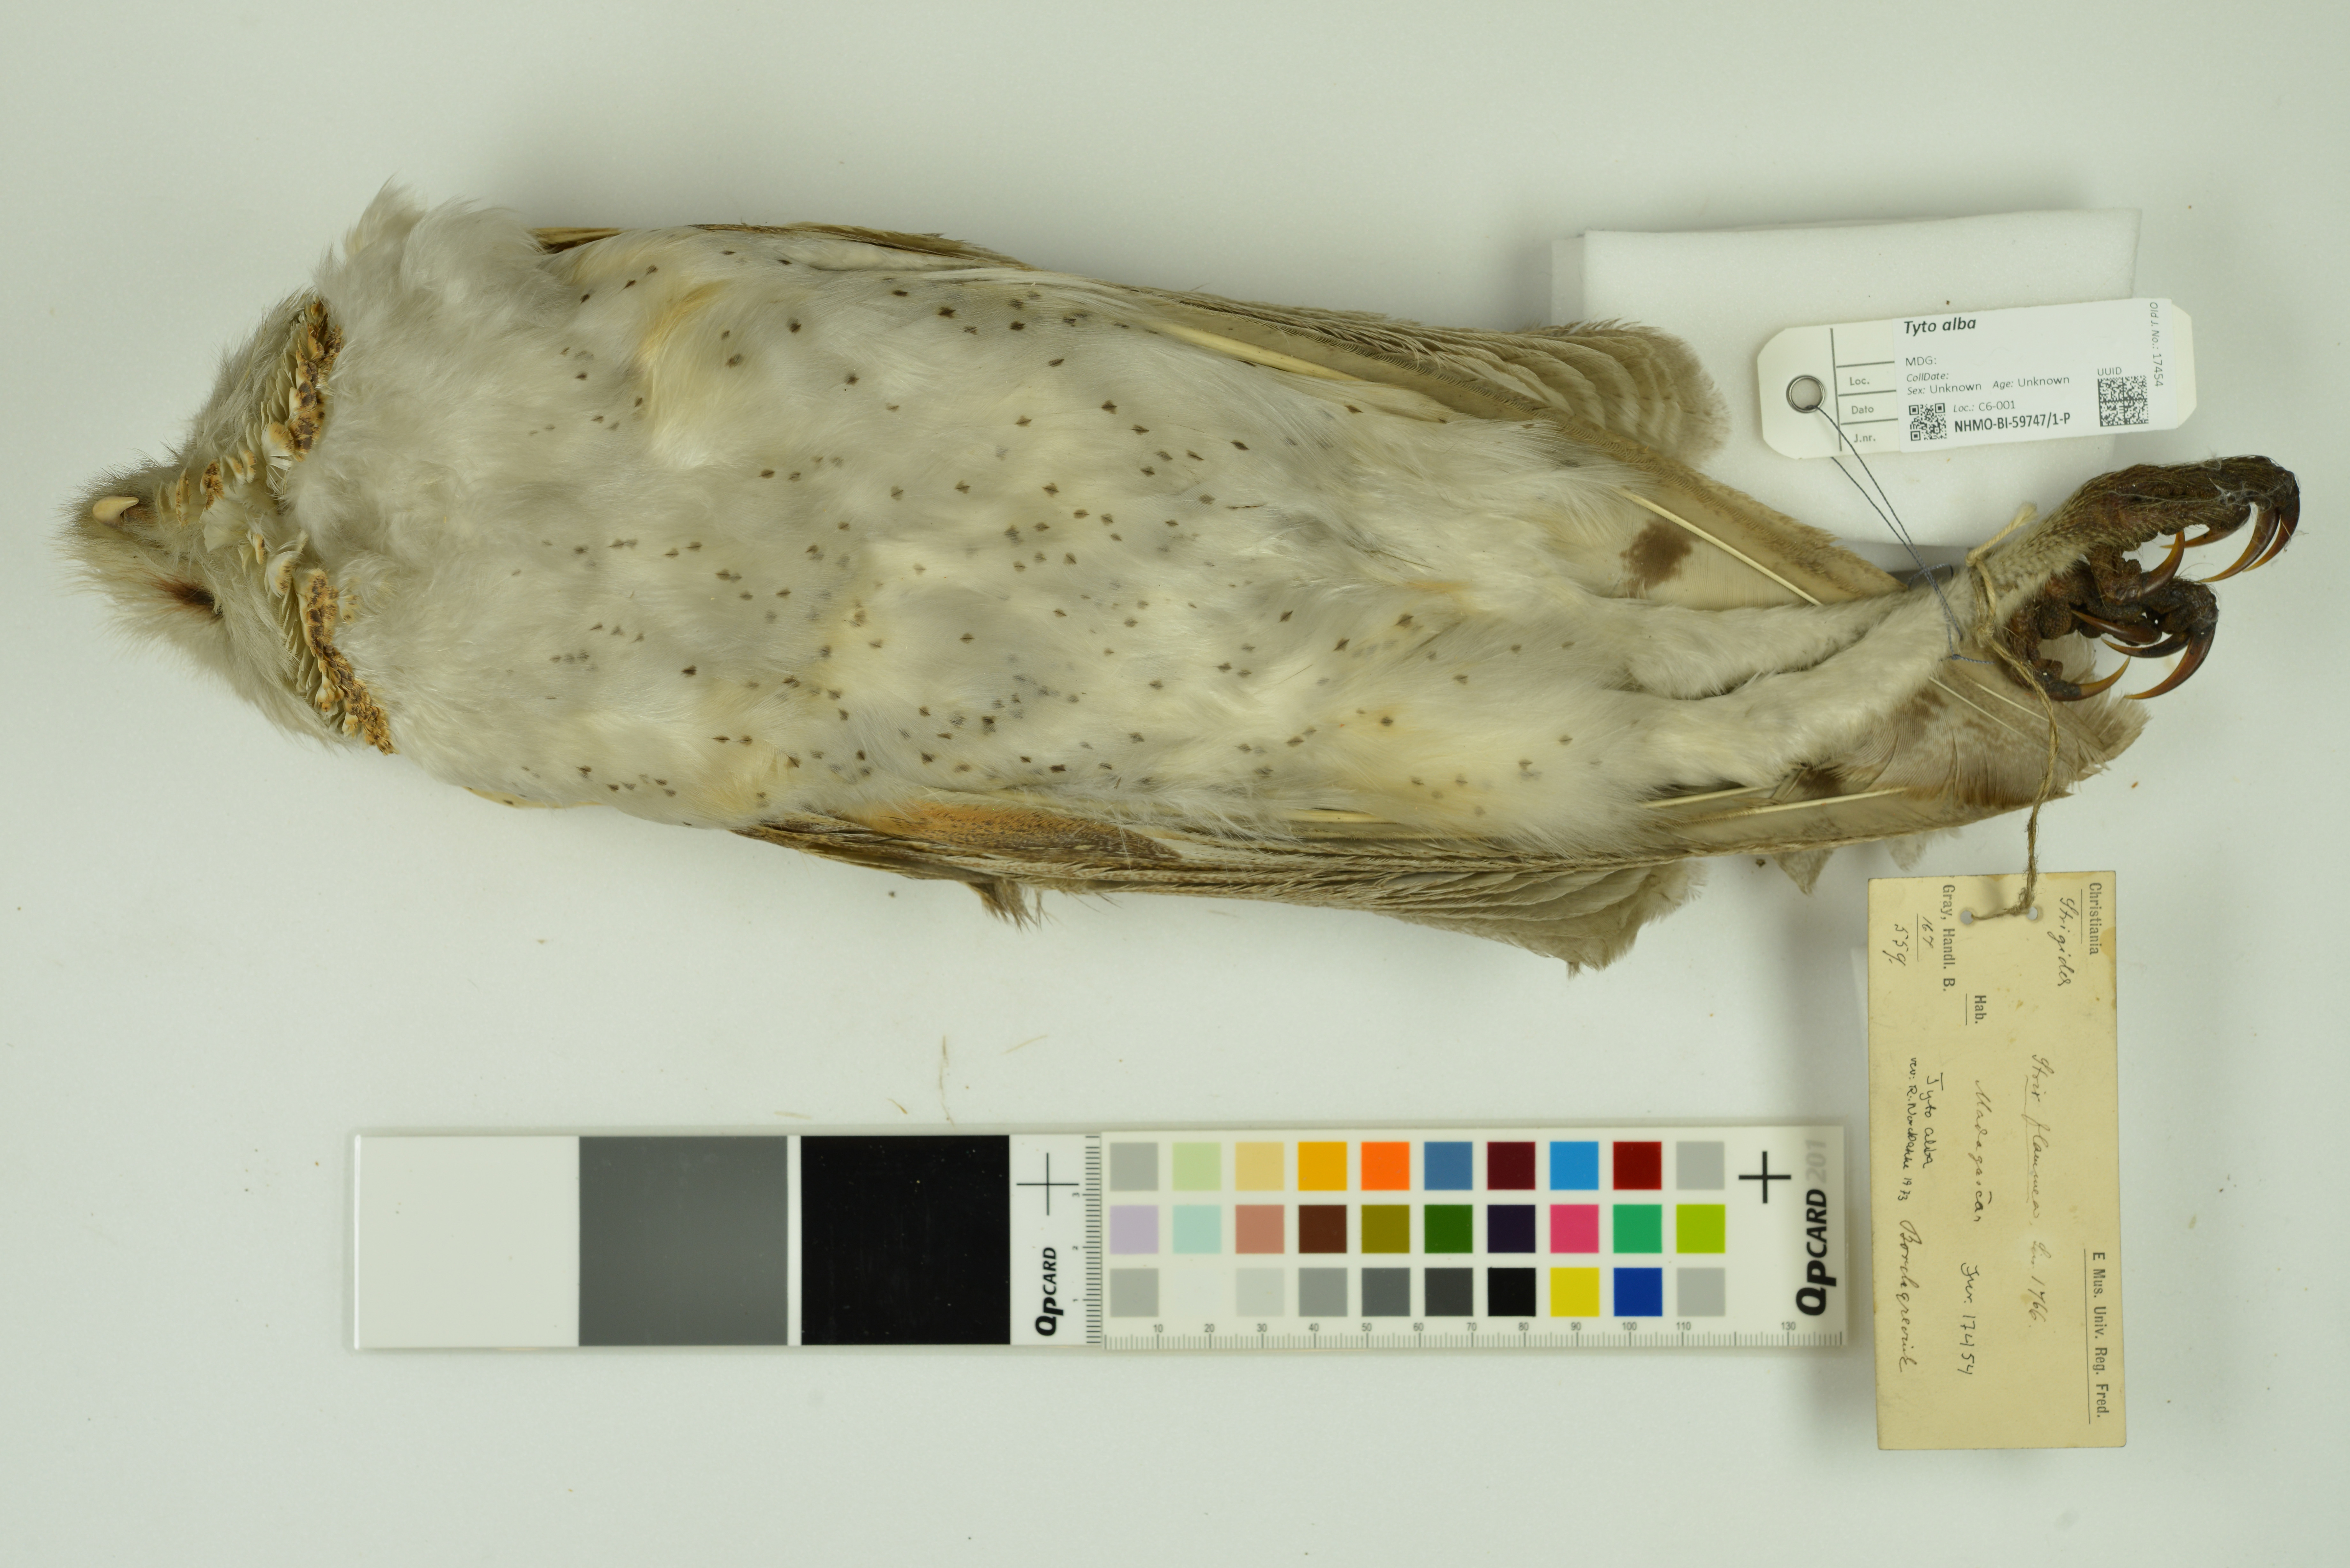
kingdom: Animalia
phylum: Chordata
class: Aves
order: Strigiformes
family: Tytonidae
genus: Tyto
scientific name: Tyto alba
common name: Barn owl
